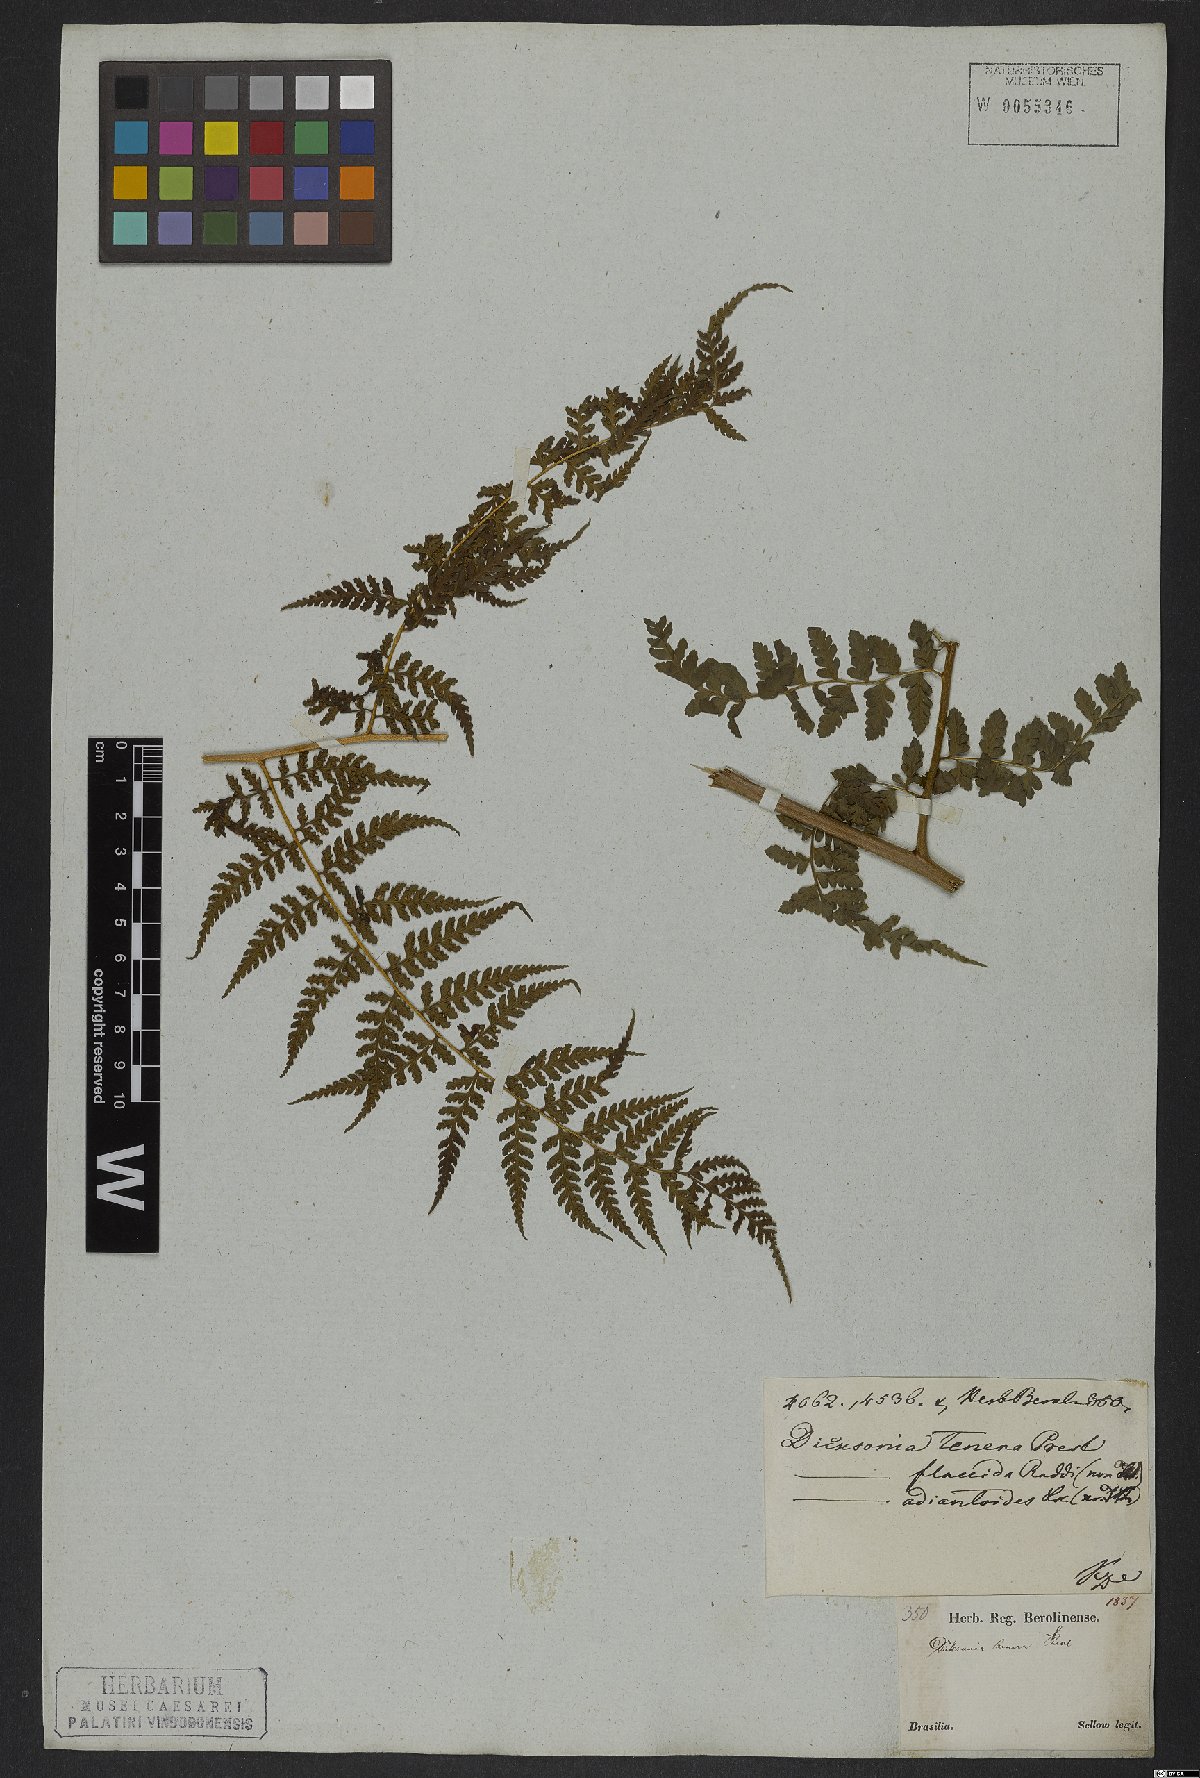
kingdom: Plantae
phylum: Tracheophyta
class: Polypodiopsida
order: Polypodiales
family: Dennstaedtiaceae
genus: Mucura
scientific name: Mucura globulifera
